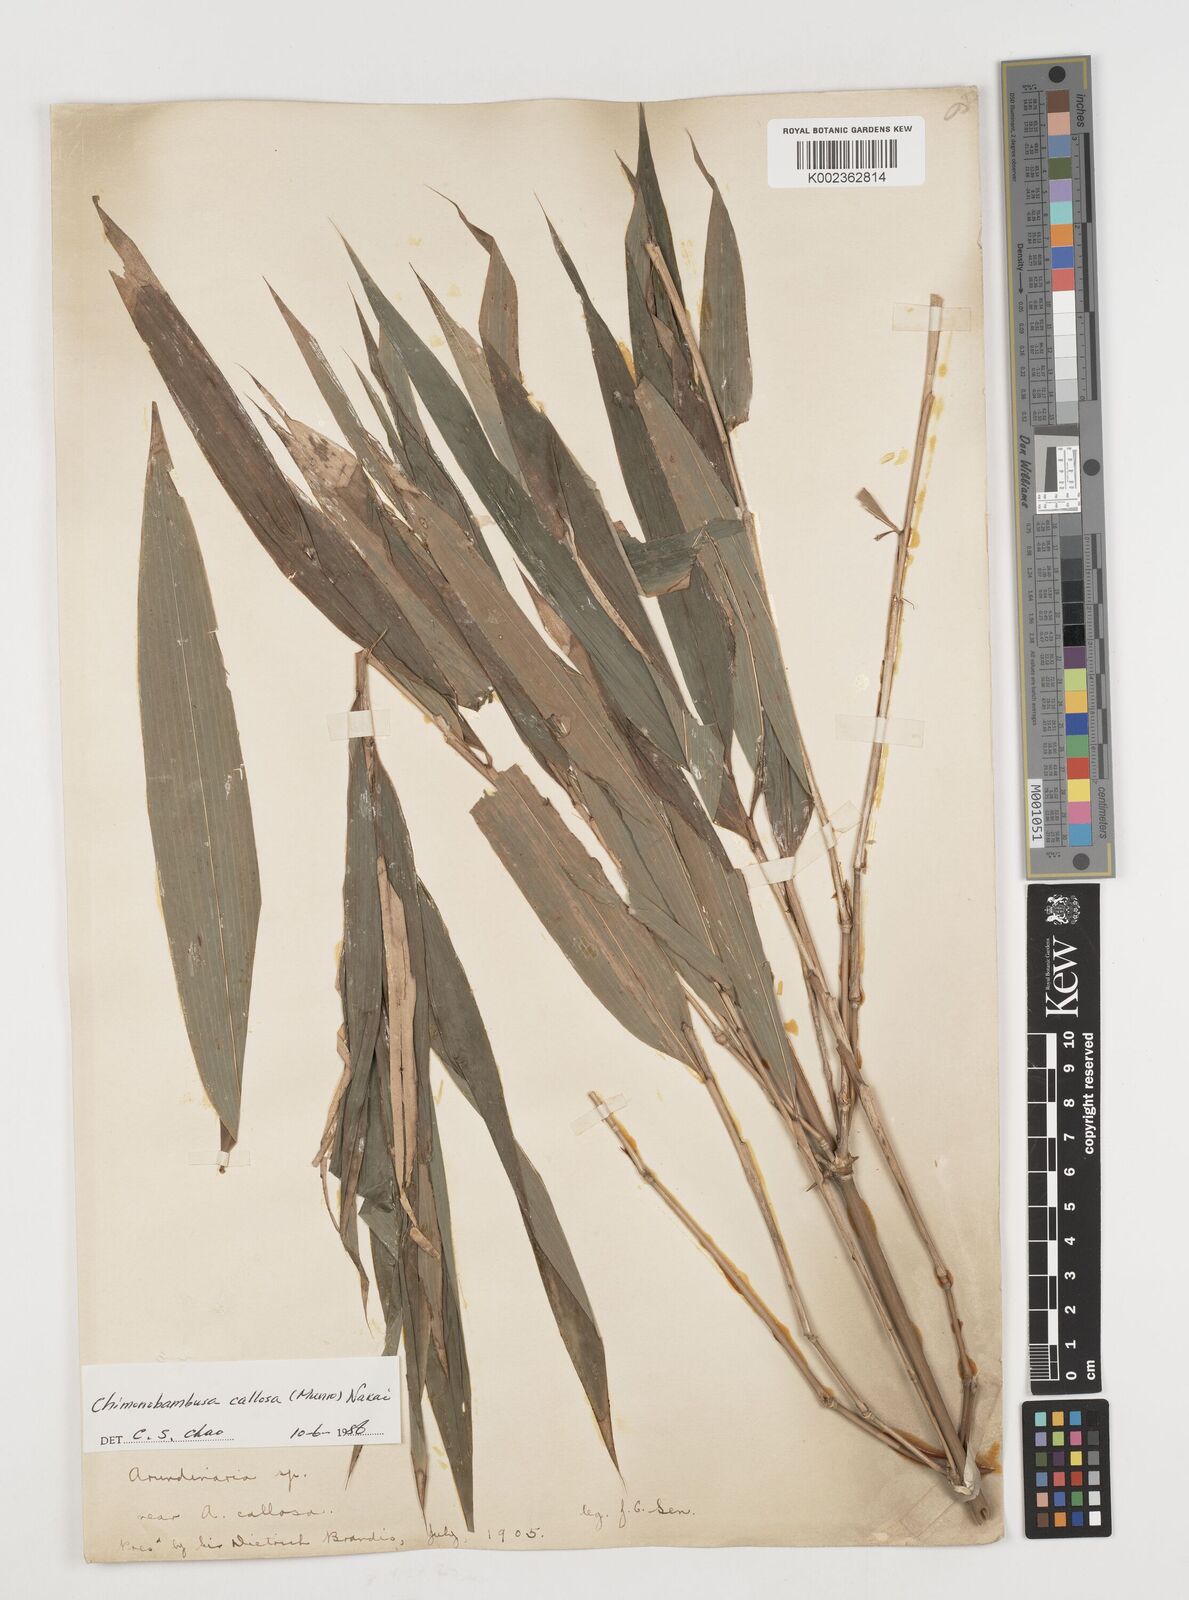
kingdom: Plantae
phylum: Tracheophyta
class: Liliopsida
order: Poales
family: Poaceae
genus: Chimonobambusa
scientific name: Chimonobambusa callosa
